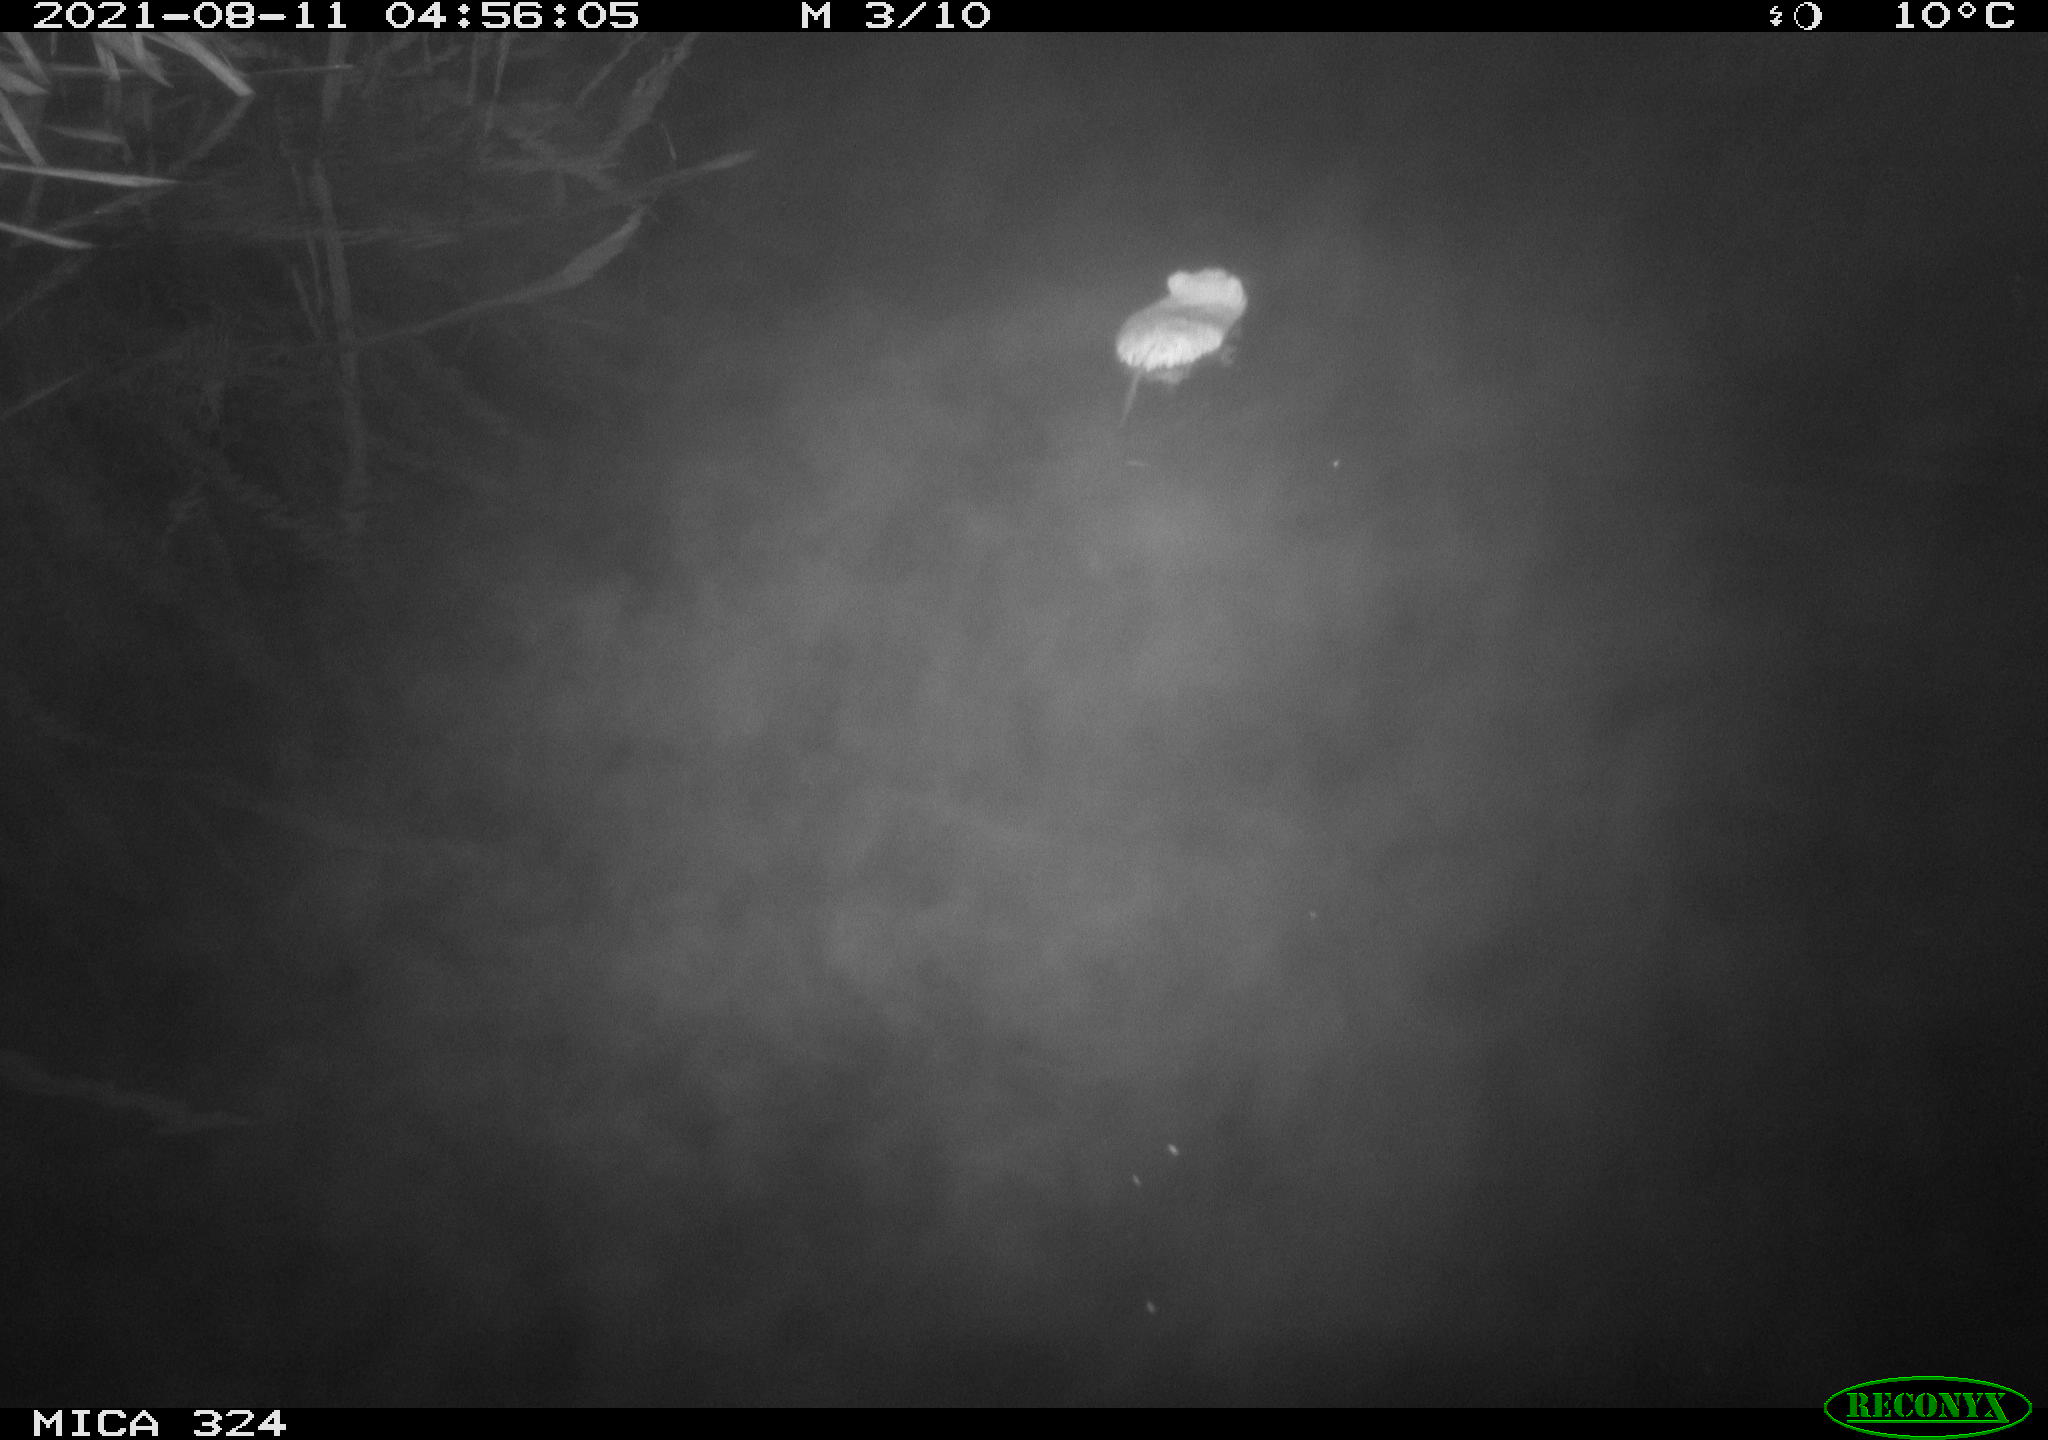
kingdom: Animalia
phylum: Chordata
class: Mammalia
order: Rodentia
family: Cricetidae
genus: Ondatra
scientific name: Ondatra zibethicus
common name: Muskrat
